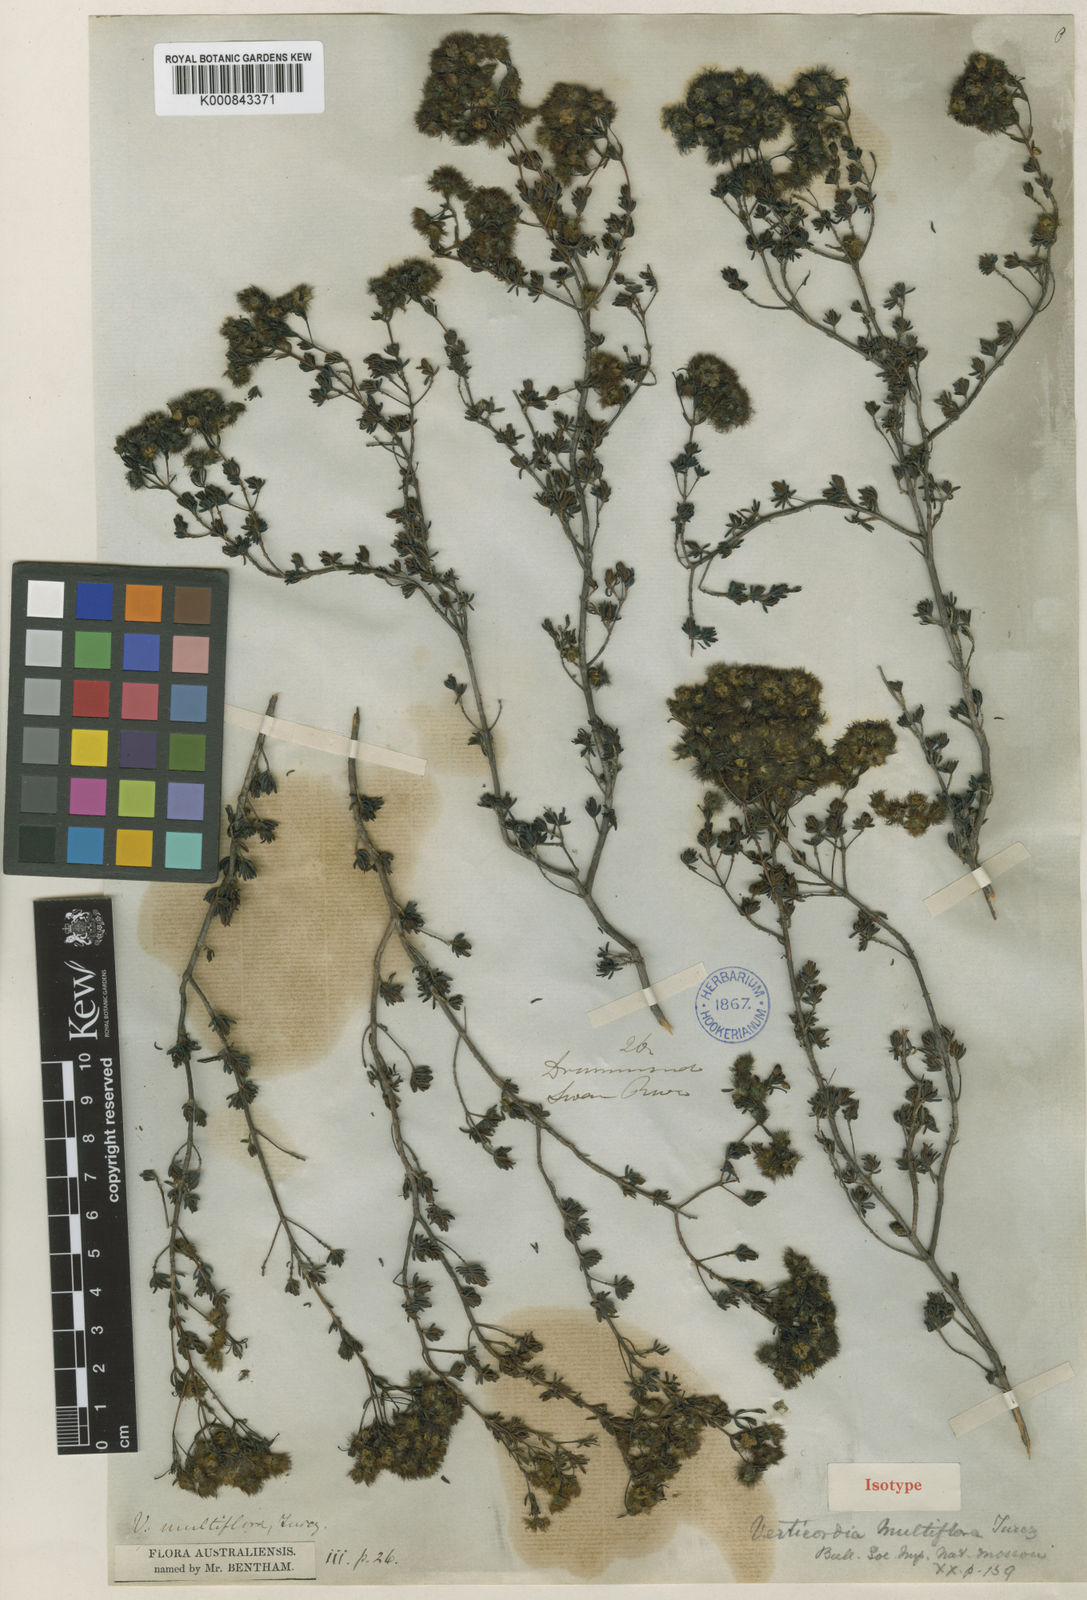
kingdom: Plantae
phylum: Tracheophyta
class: Magnoliopsida
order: Myrtales
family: Myrtaceae
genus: Verticordia
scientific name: Verticordia multiflora
